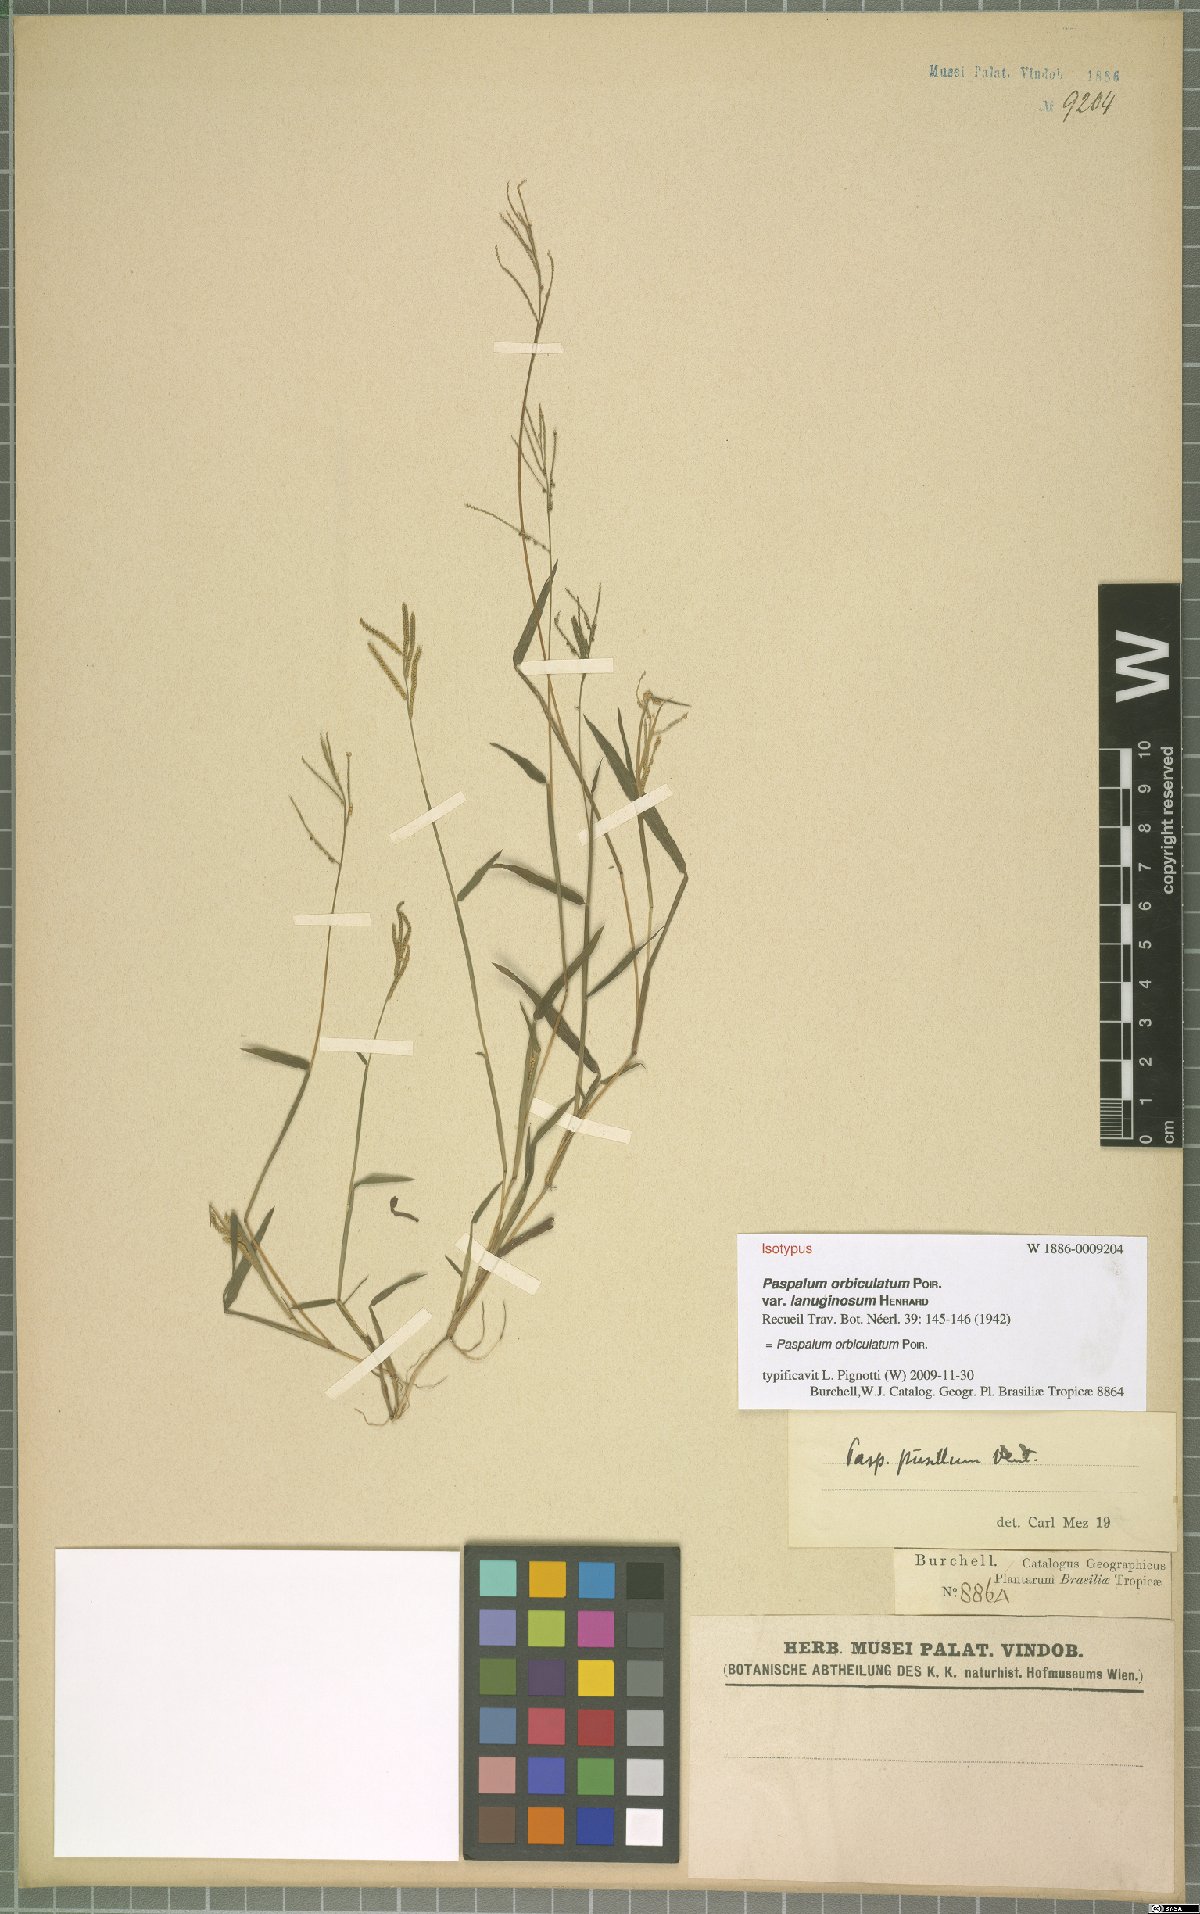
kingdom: Plantae
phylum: Tracheophyta
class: Liliopsida
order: Poales
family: Poaceae
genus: Paspalum
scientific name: Paspalum orbiculatum
